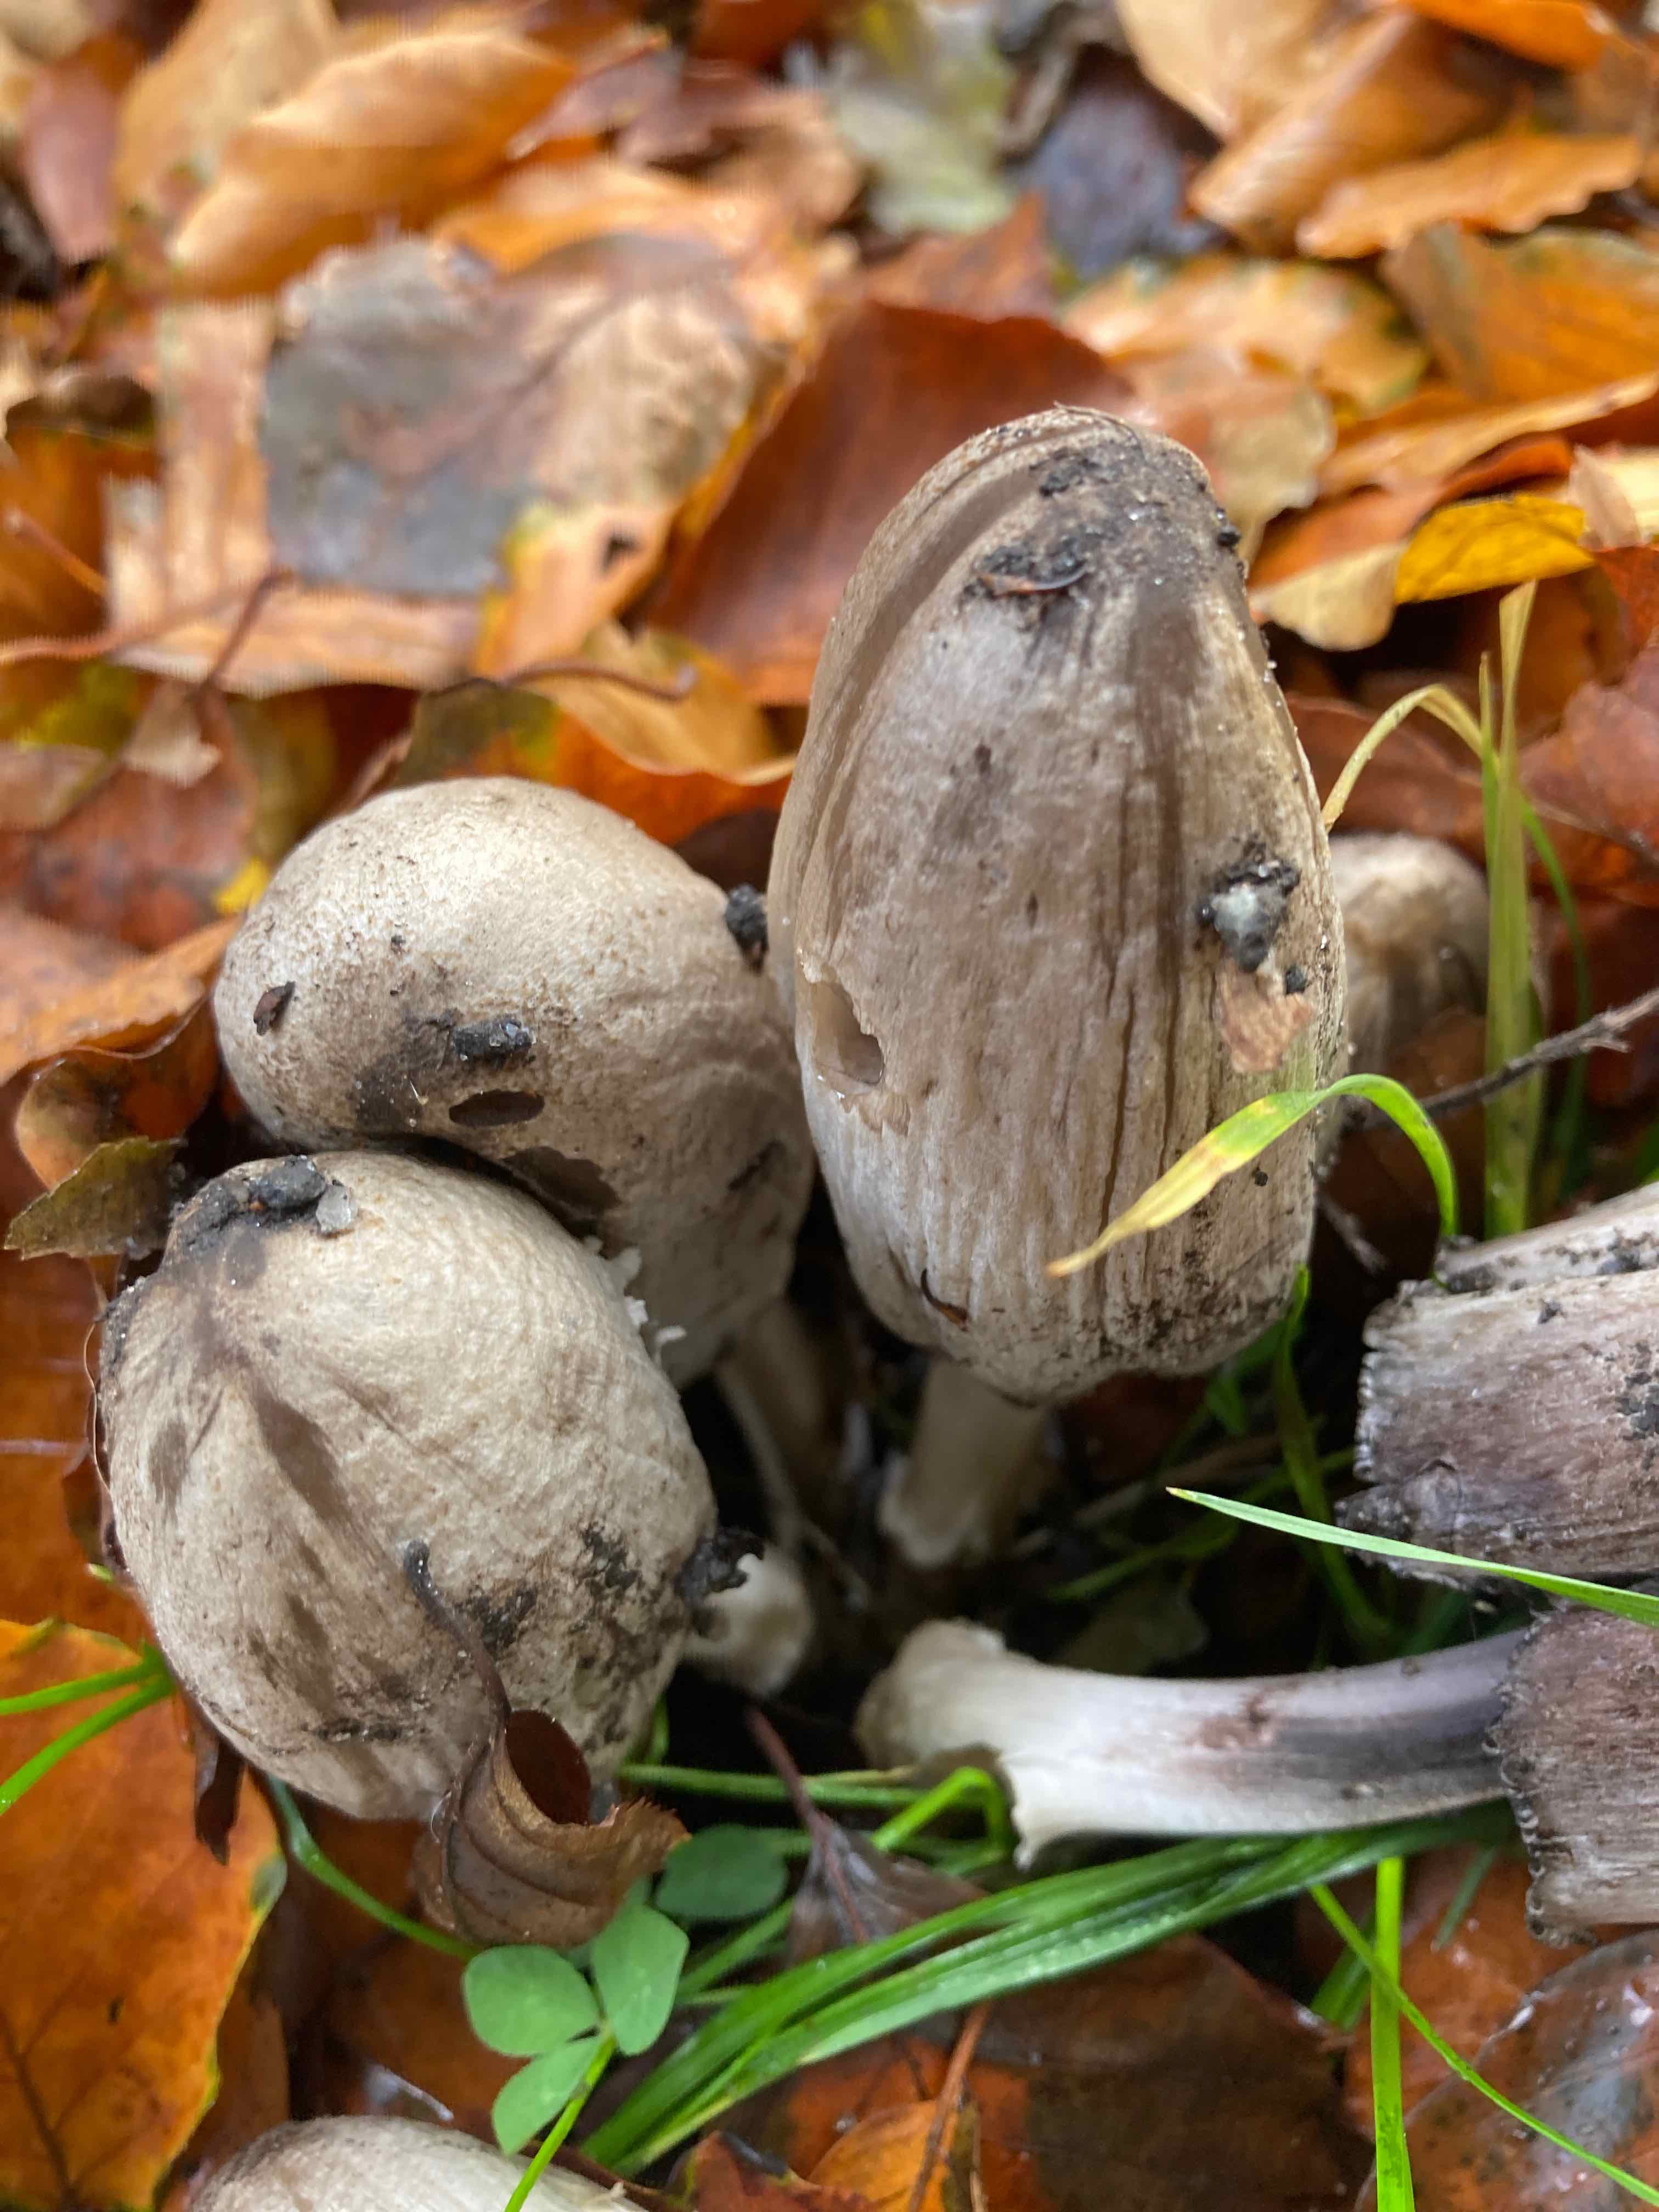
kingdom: Fungi
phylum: Basidiomycota
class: Agaricomycetes
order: Agaricales
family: Psathyrellaceae
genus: Coprinopsis
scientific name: Coprinopsis atramentaria
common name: almindelig blækhat
